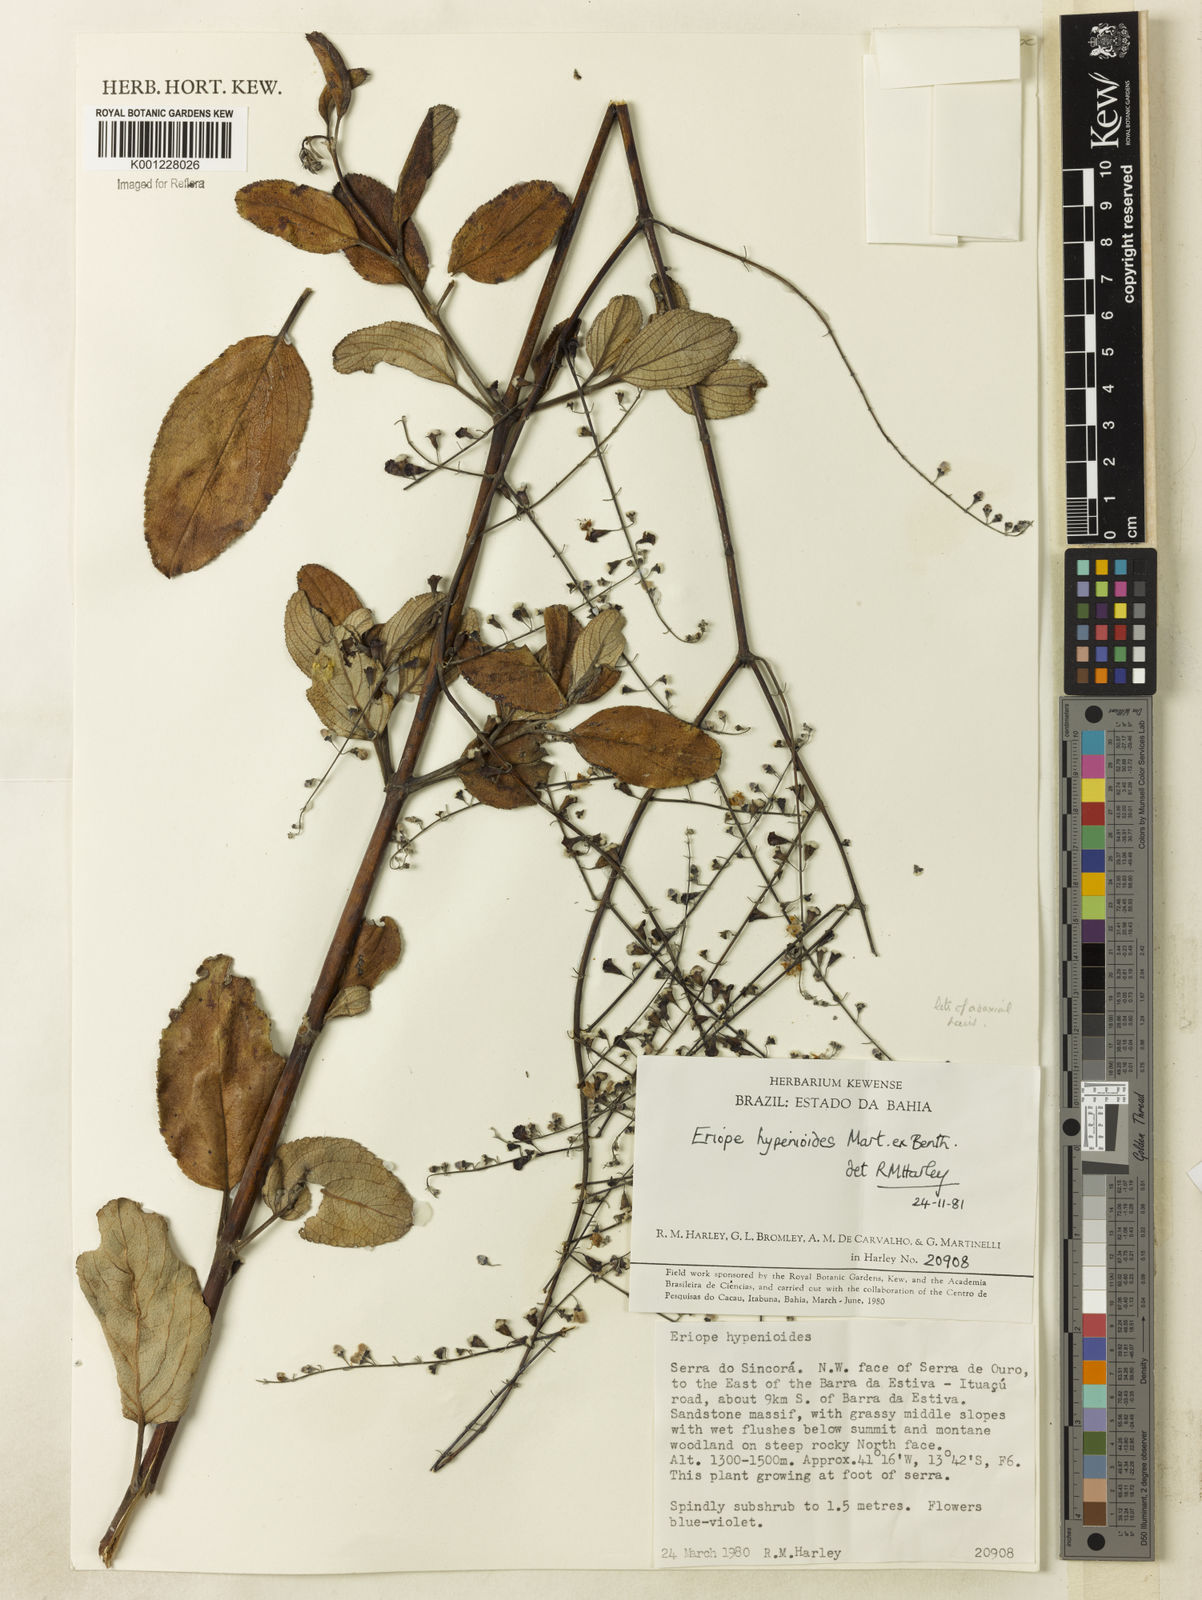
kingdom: Plantae
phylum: Tracheophyta
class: Magnoliopsida
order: Lamiales
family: Lamiaceae
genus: Eriope
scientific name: Eriope hypenioides
